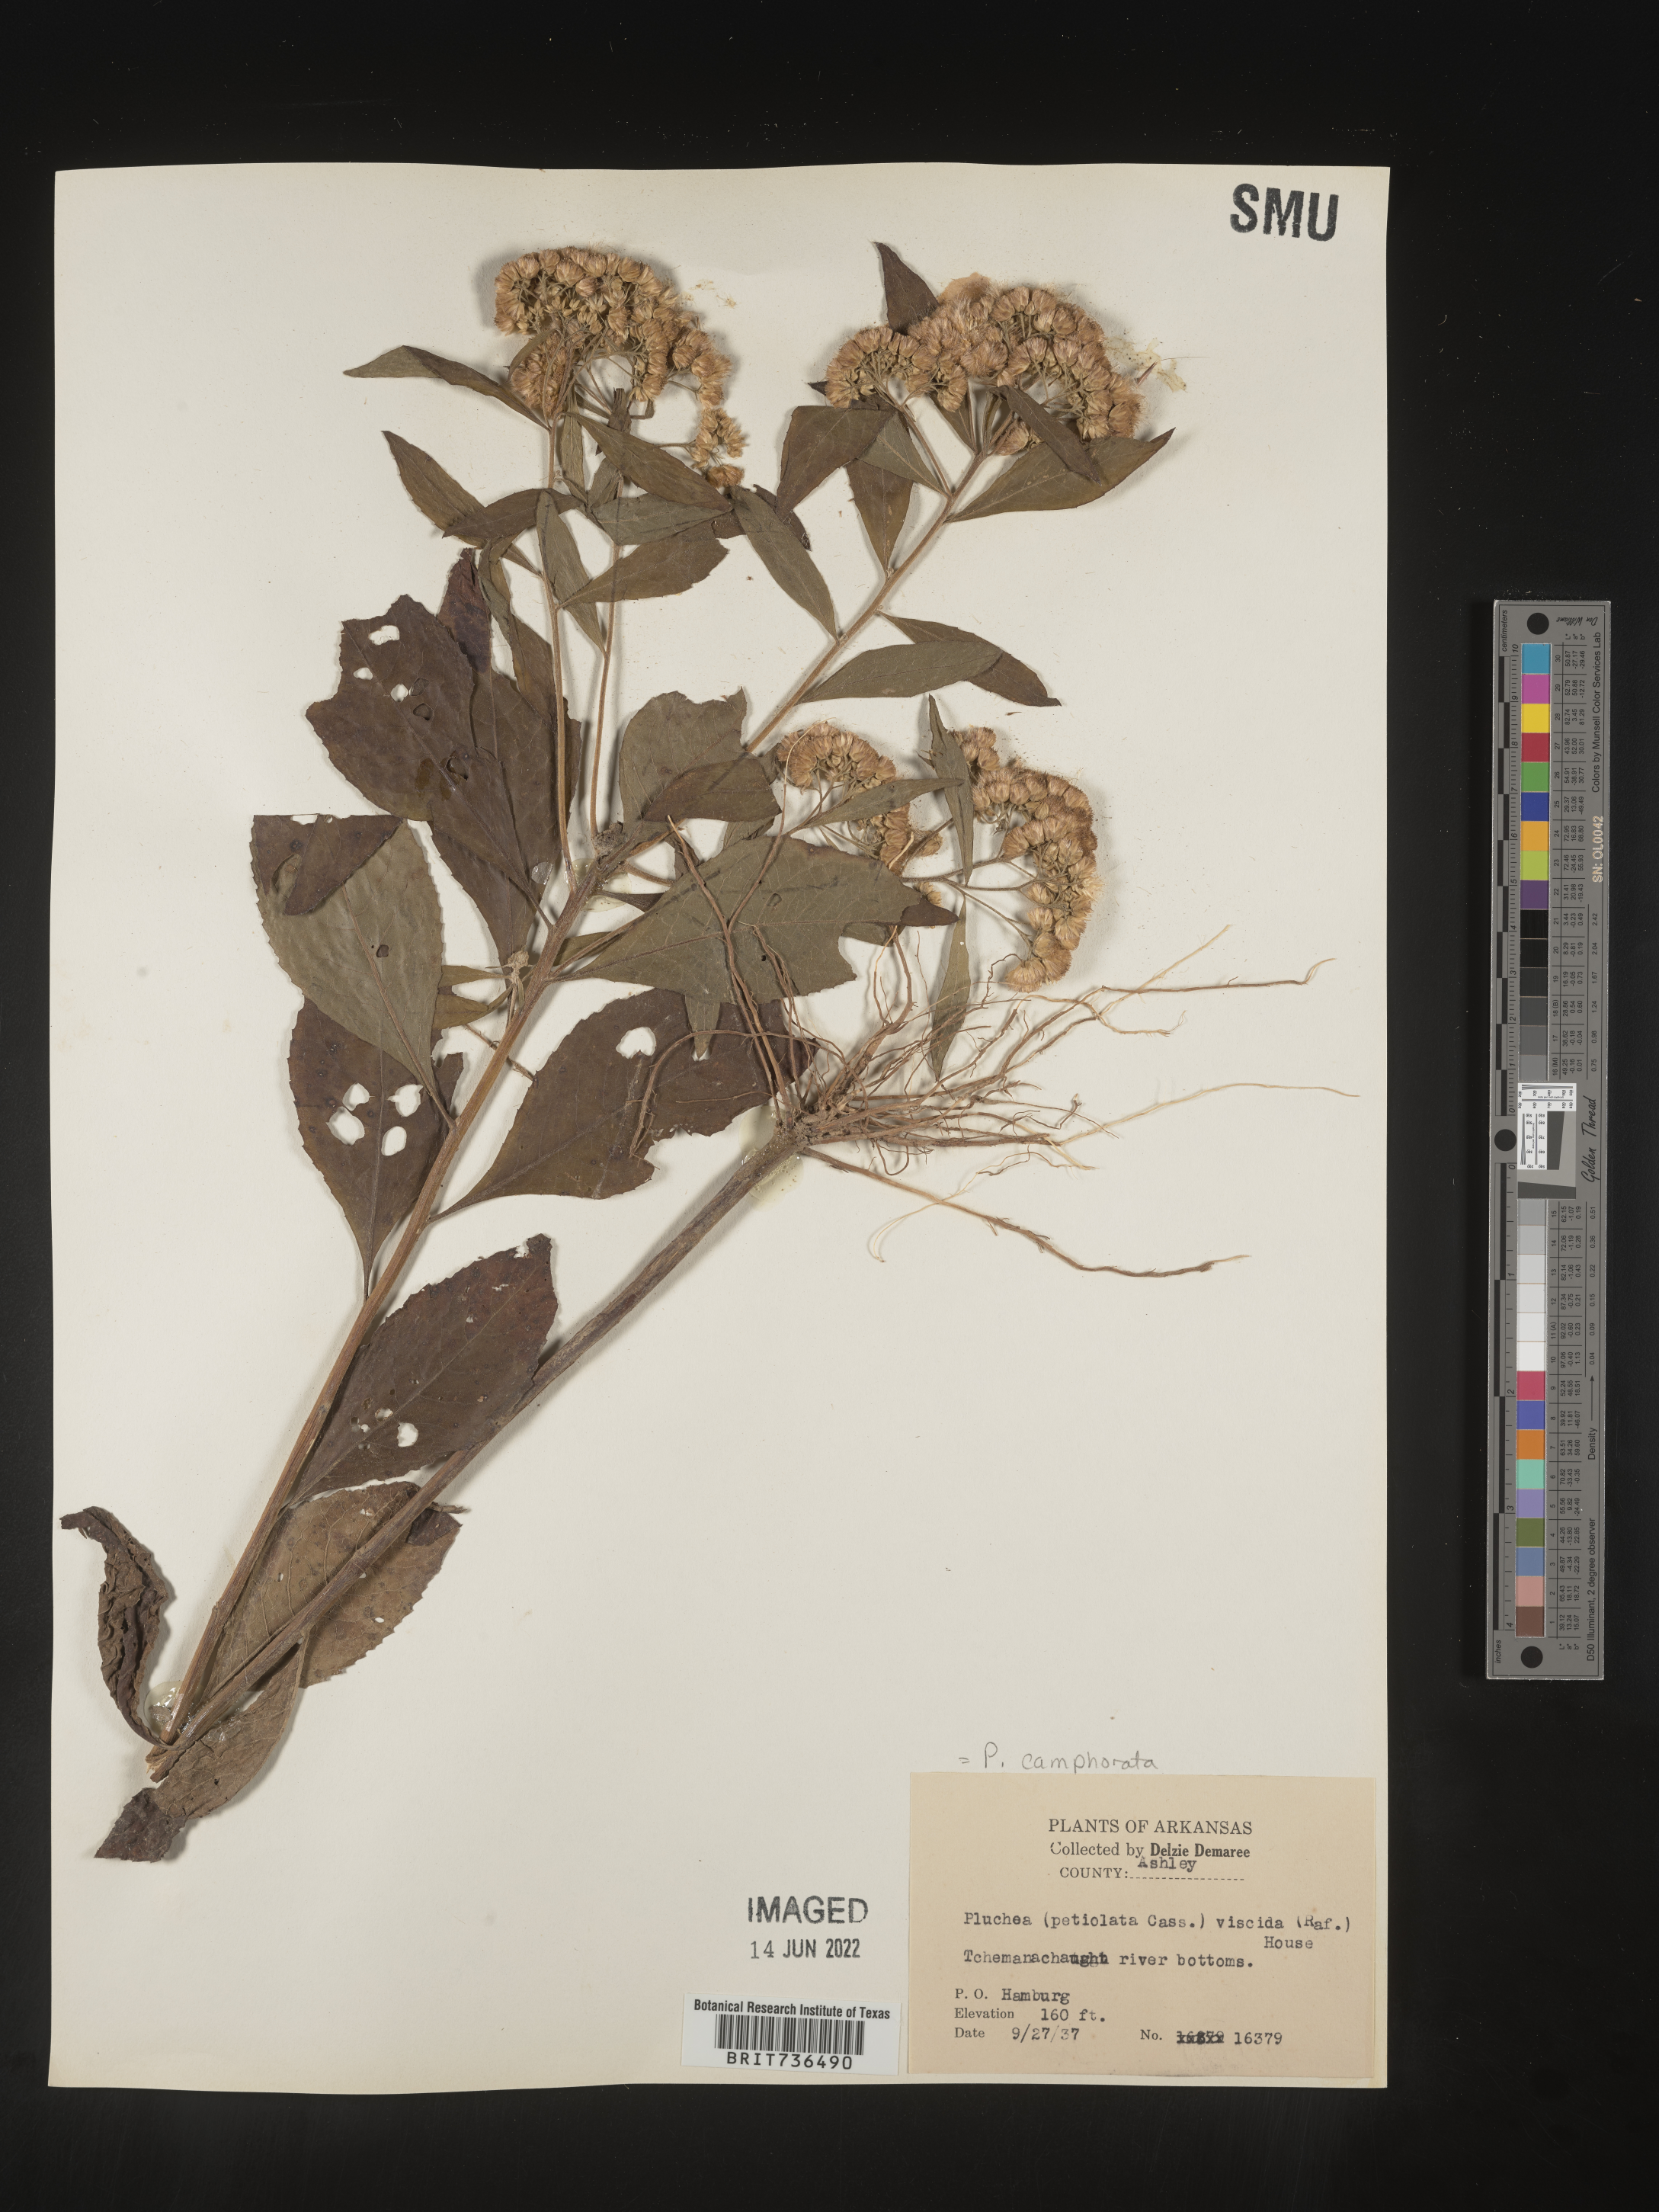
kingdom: Plantae
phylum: Tracheophyta
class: Magnoliopsida
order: Asterales
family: Asteraceae
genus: Pluchea
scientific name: Pluchea camphorata
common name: Camphor pluchea
